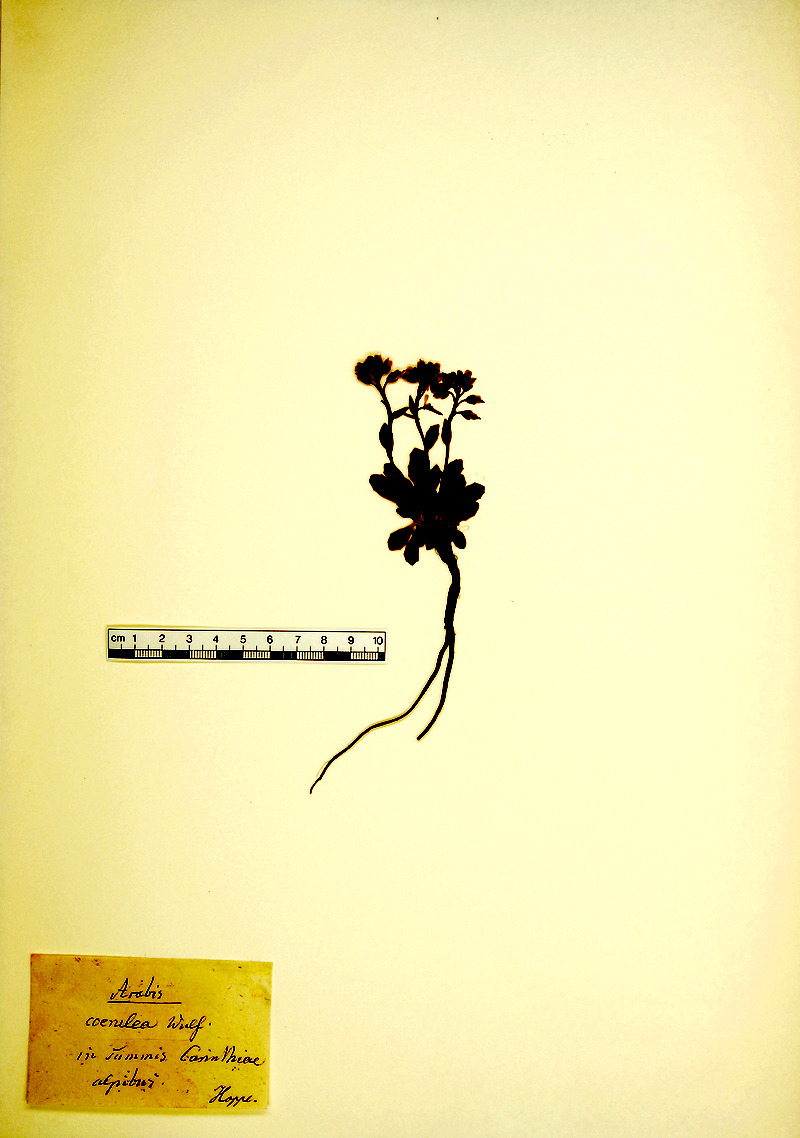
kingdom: Plantae
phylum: Tracheophyta
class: Magnoliopsida
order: Brassicales
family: Brassicaceae
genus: Arabis
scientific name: Arabis caerulea
